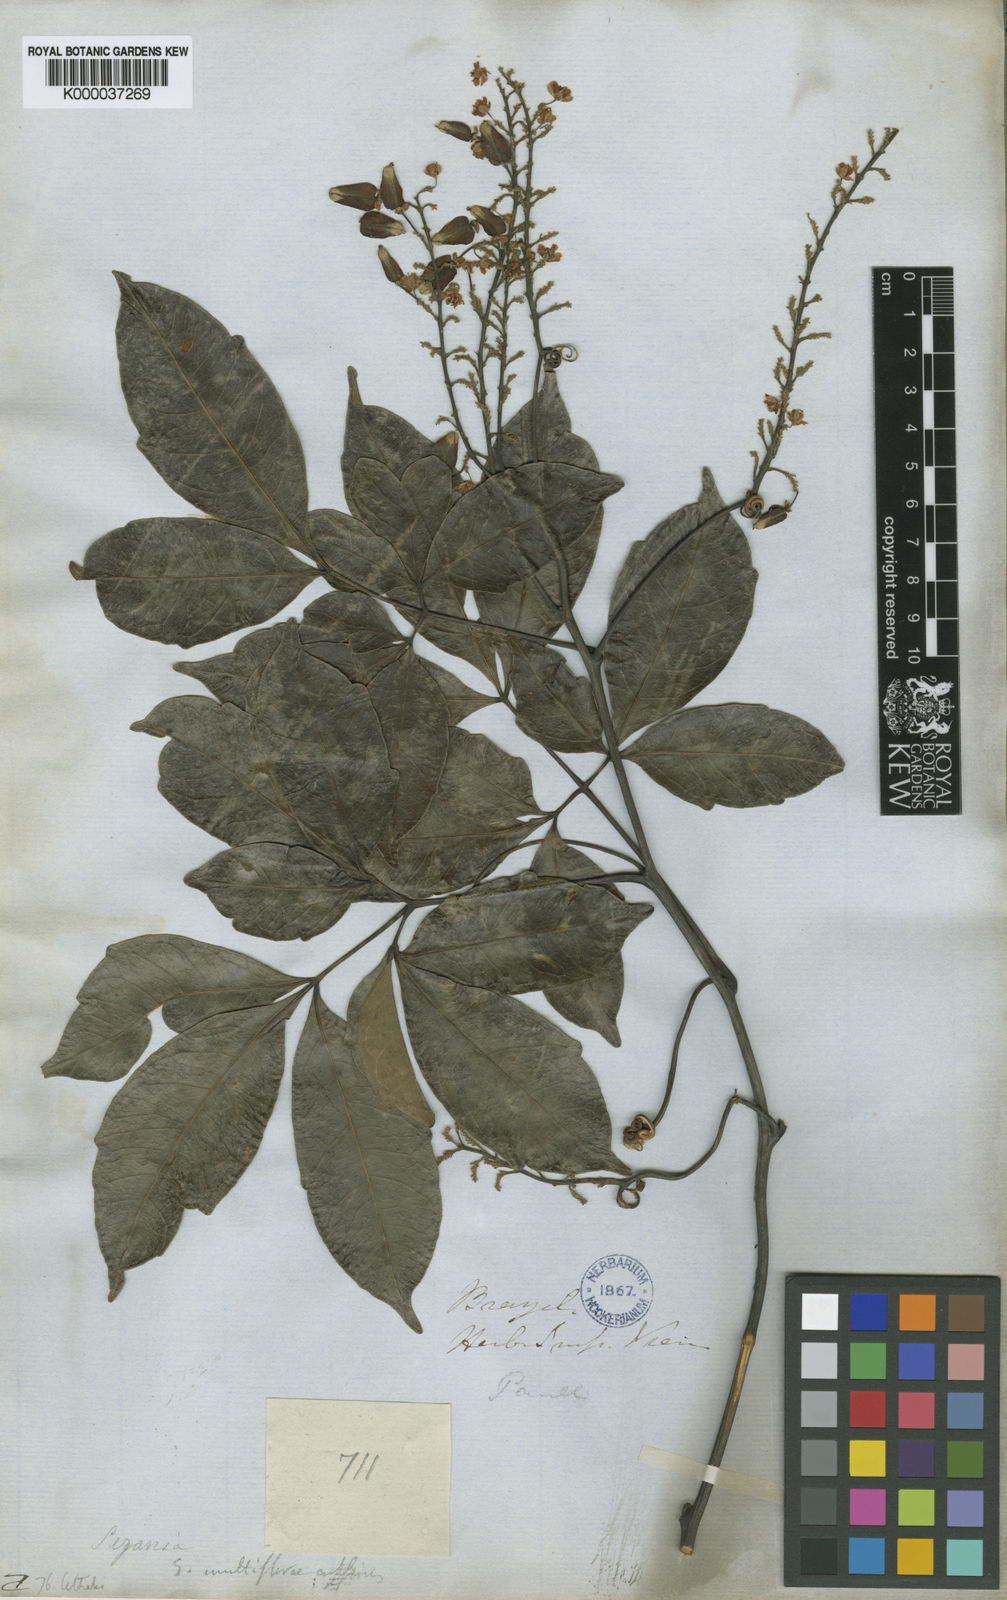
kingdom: Plantae
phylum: Tracheophyta
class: Magnoliopsida
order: Sapindales
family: Sapindaceae
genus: Serjania
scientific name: Serjania lethalis
